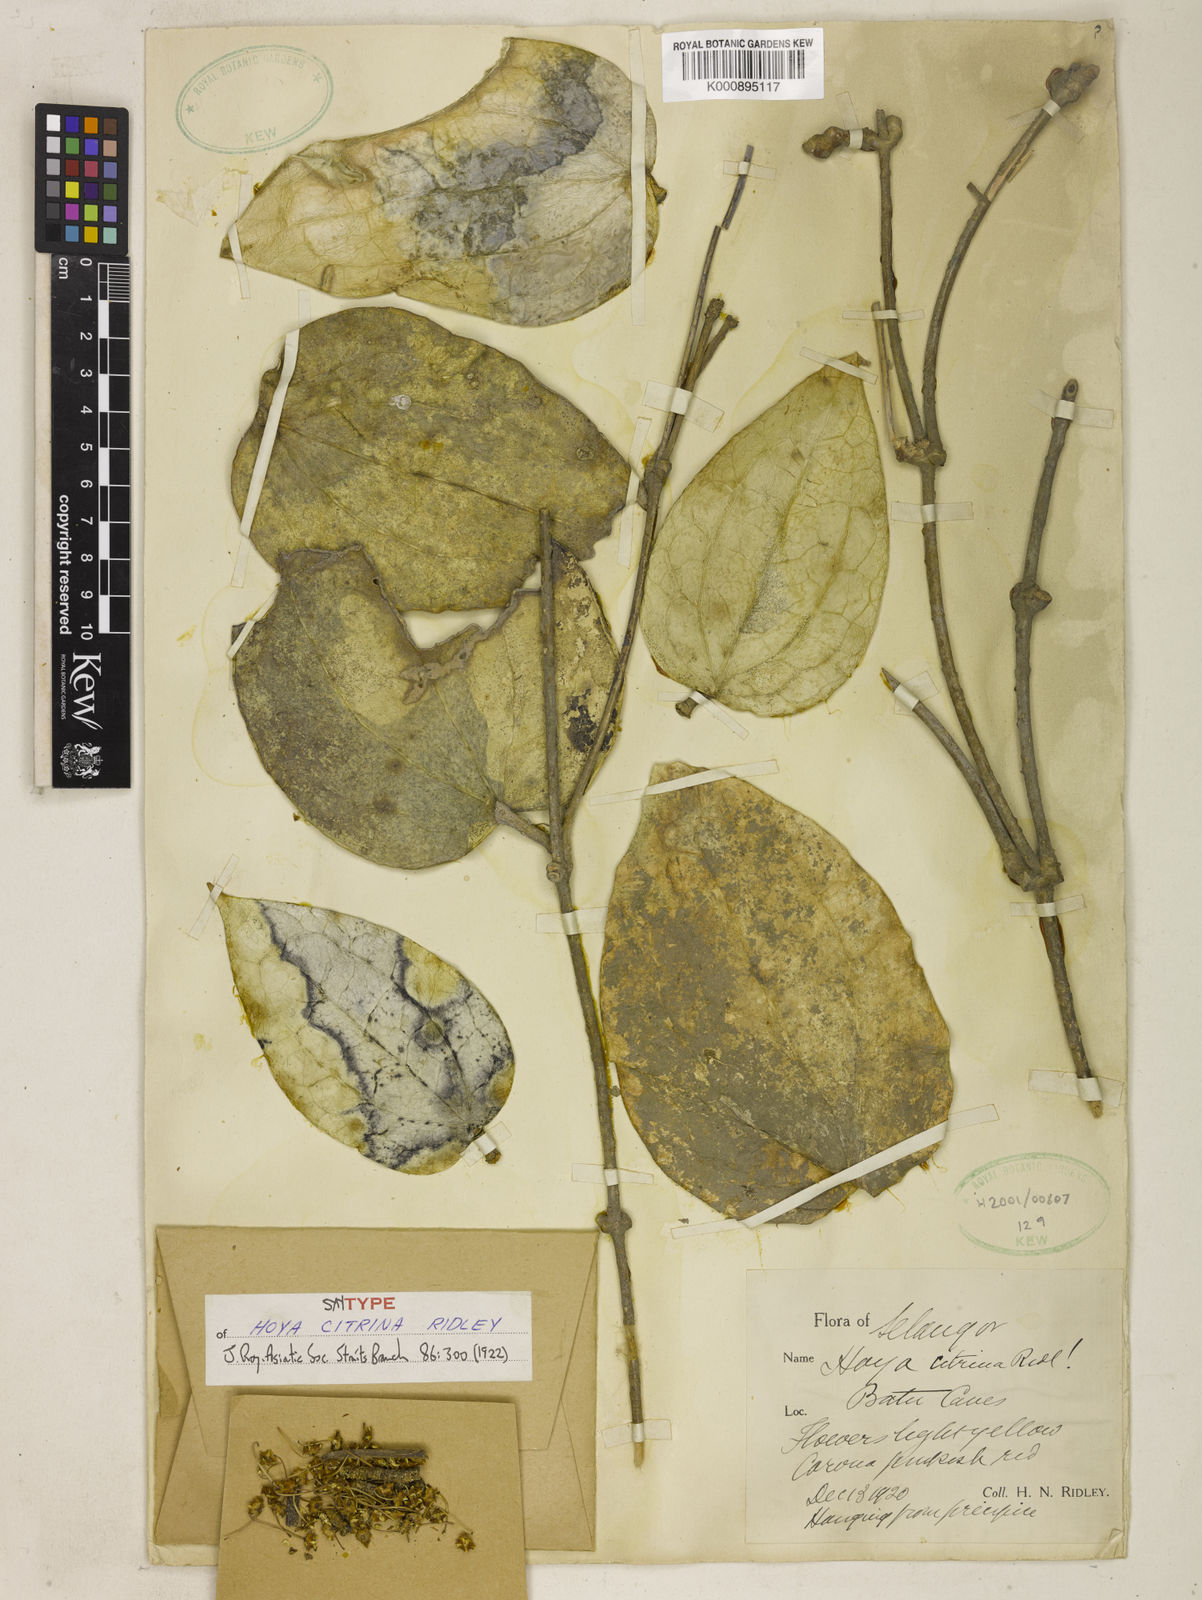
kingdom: Plantae
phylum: Tracheophyta
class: Magnoliopsida
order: Gentianales
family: Apocynaceae
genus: Hoya
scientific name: Hoya verticillata
